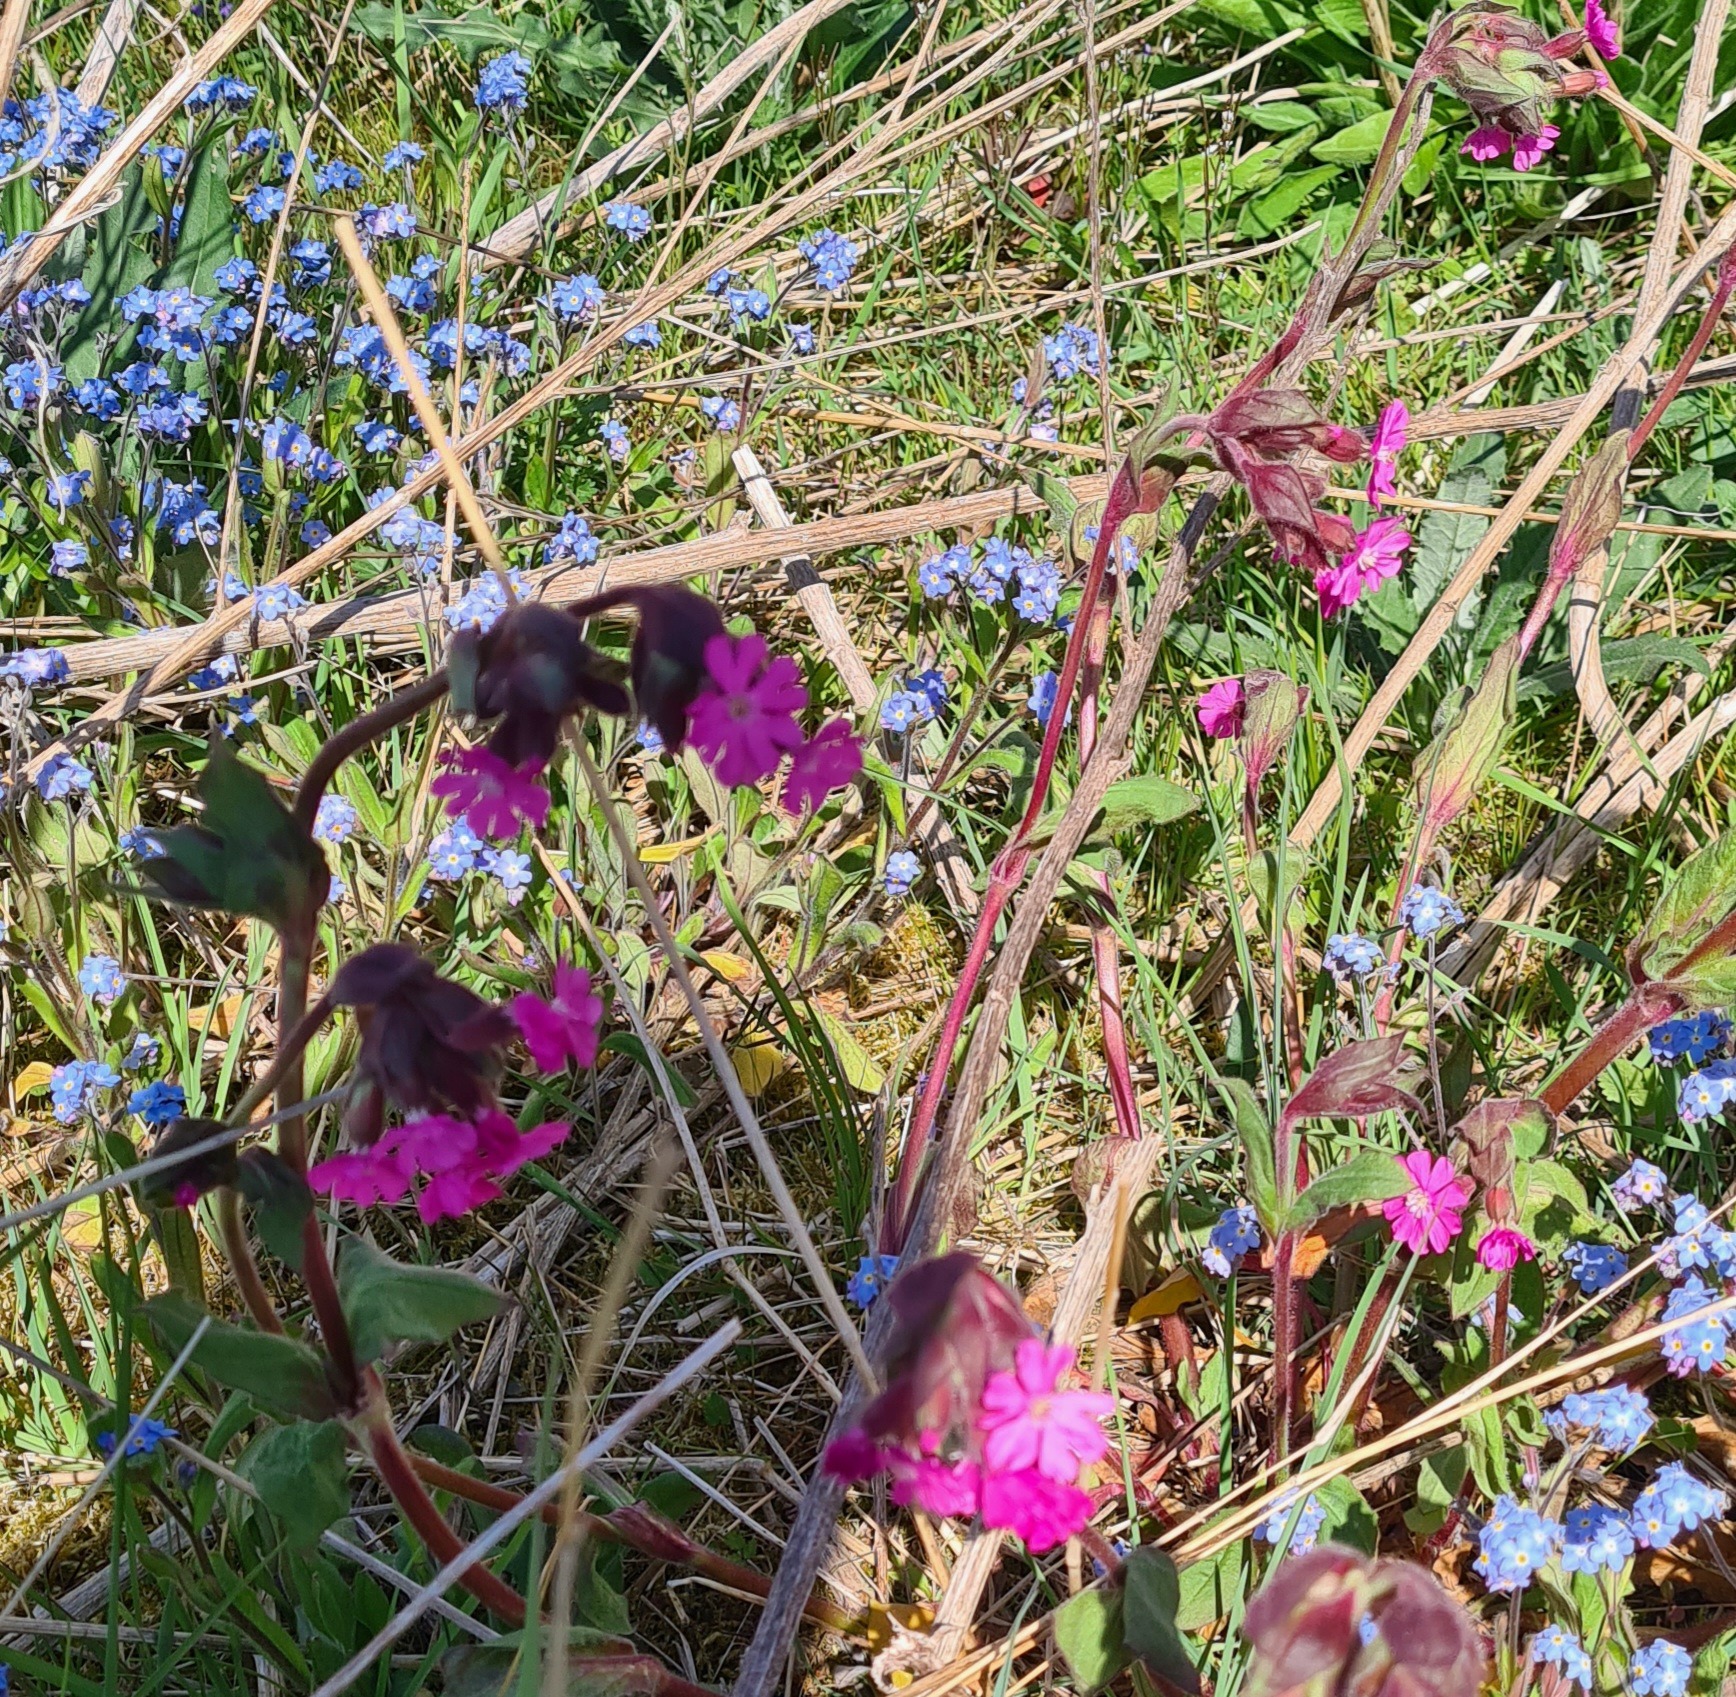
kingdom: Plantae
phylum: Tracheophyta
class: Magnoliopsida
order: Caryophyllales
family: Caryophyllaceae
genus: Silene
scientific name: Silene dioica
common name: Dagpragtstjerne
